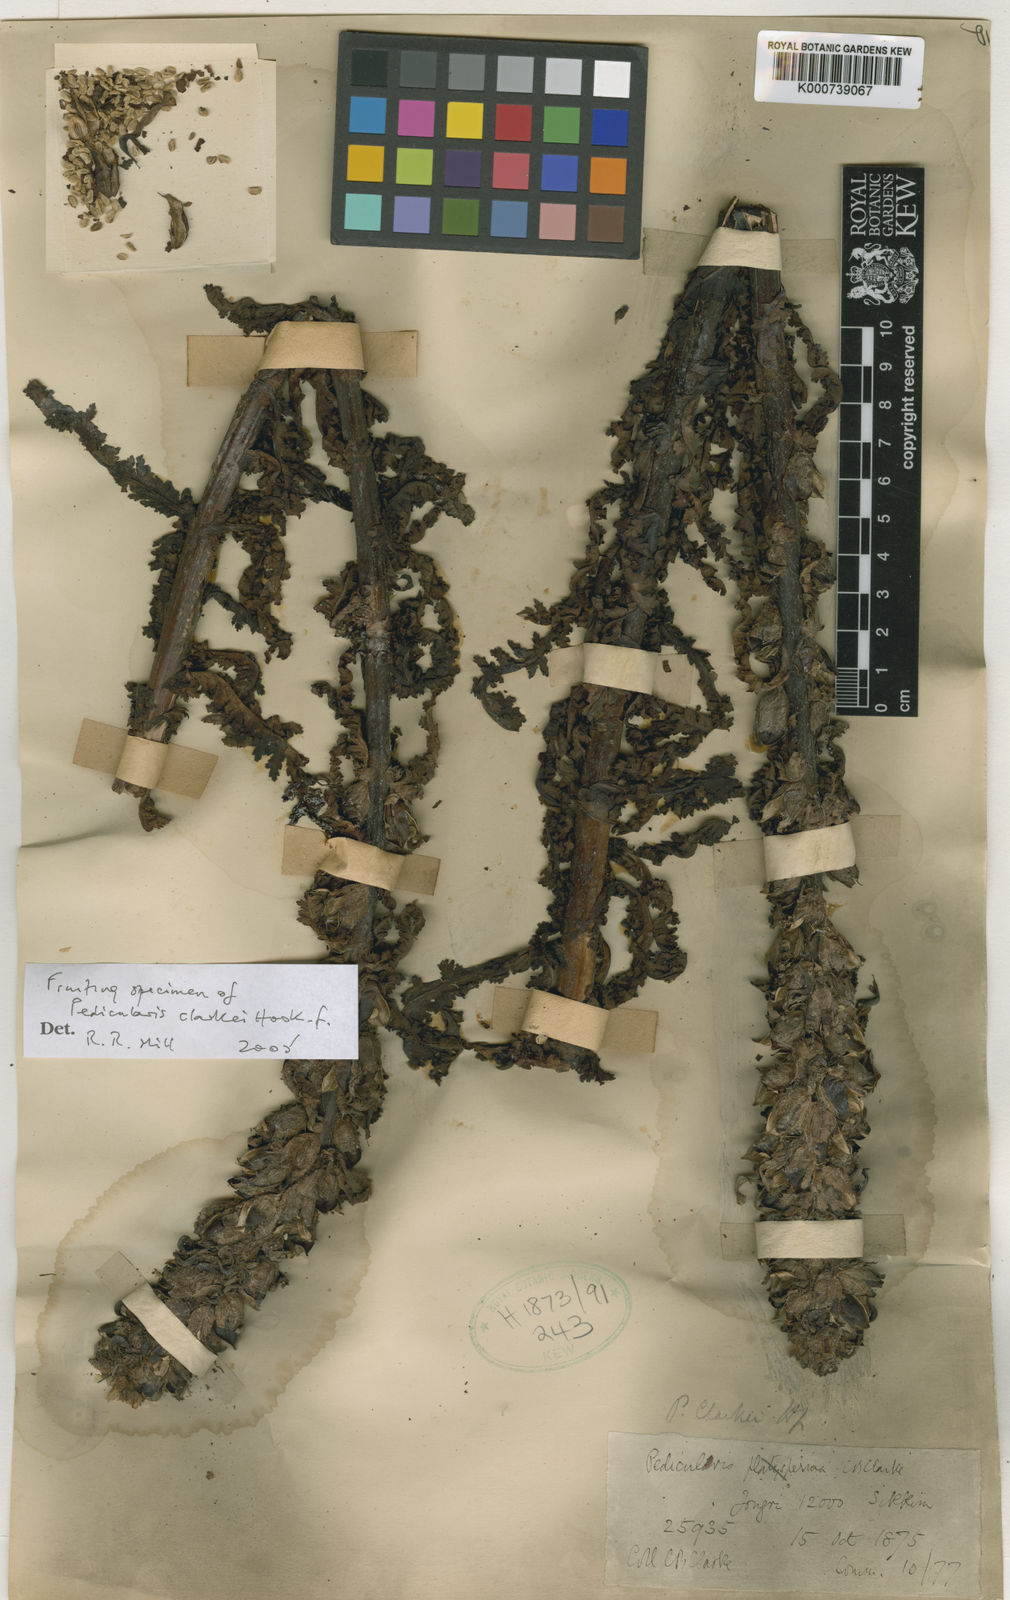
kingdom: Plantae
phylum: Tracheophyta
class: Magnoliopsida
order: Lamiales
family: Orobanchaceae
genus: Pedicularis
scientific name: Pedicularis clarkei
